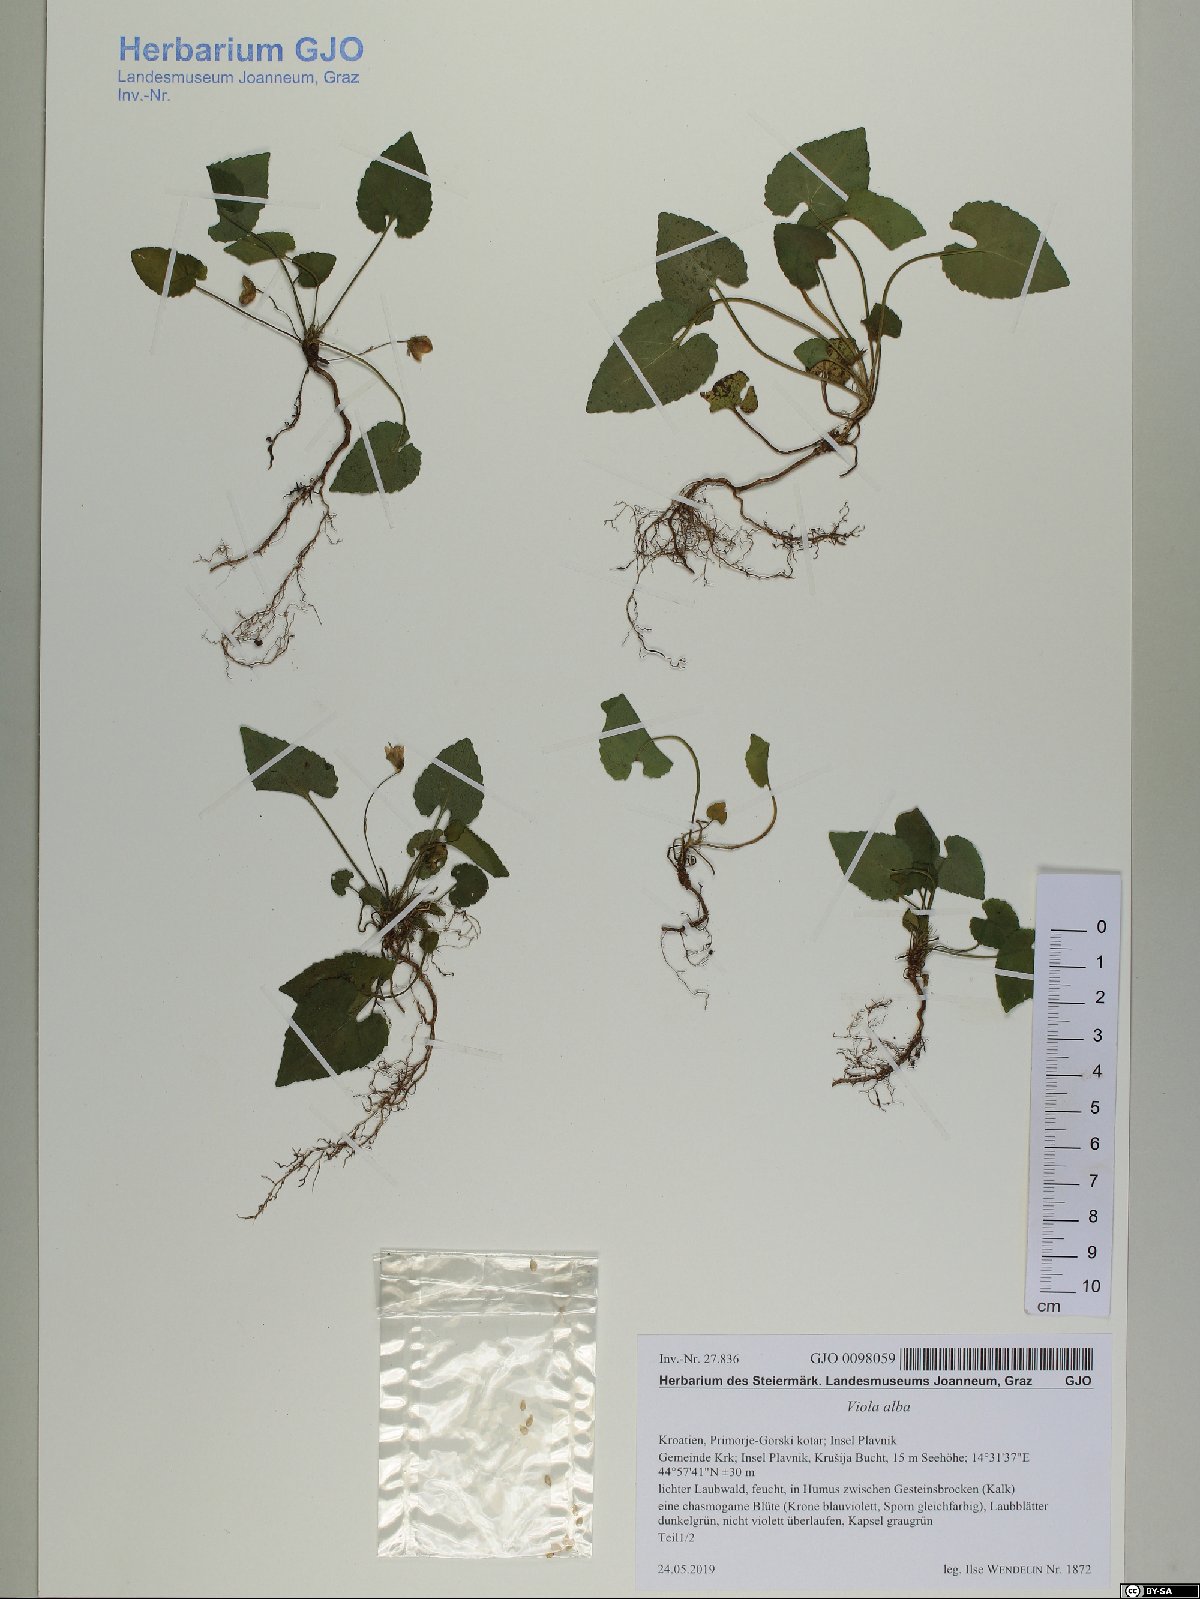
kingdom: Plantae
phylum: Tracheophyta
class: Magnoliopsida
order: Malpighiales
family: Violaceae
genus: Viola
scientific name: Viola alba
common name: White violet
